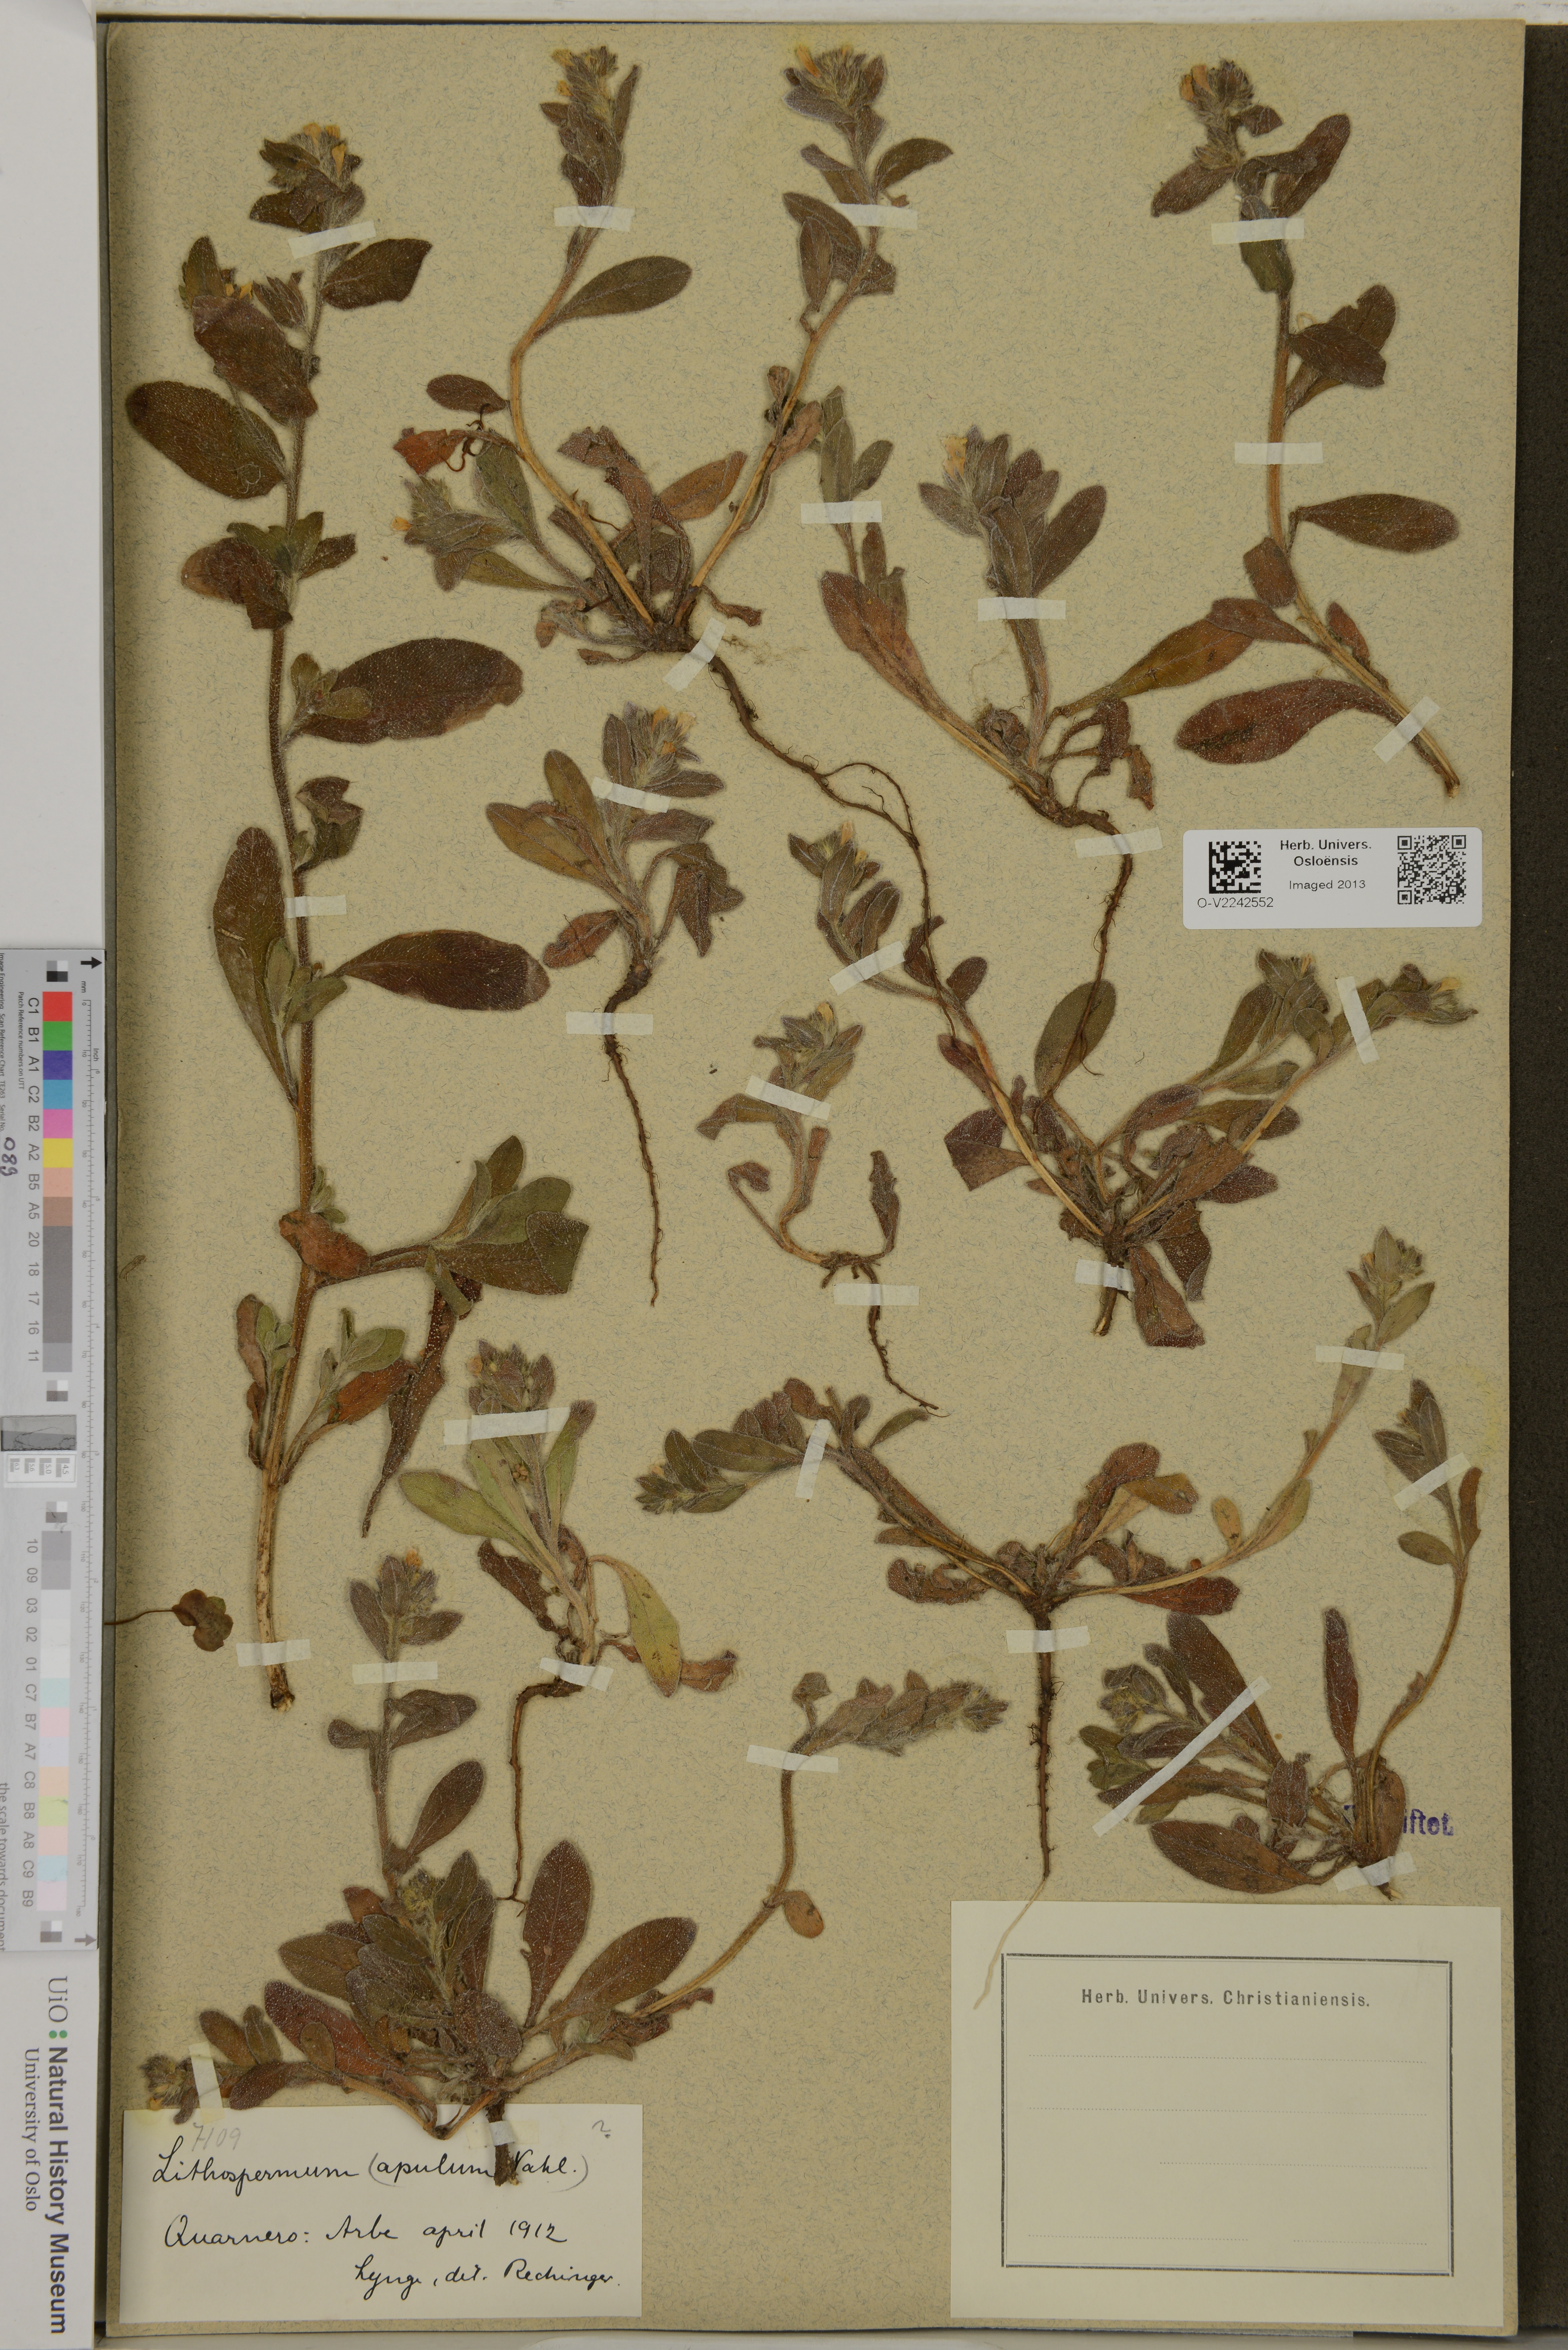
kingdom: Plantae
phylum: Tracheophyta
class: Magnoliopsida
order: Boraginales
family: Boraginaceae
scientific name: Boraginaceae
